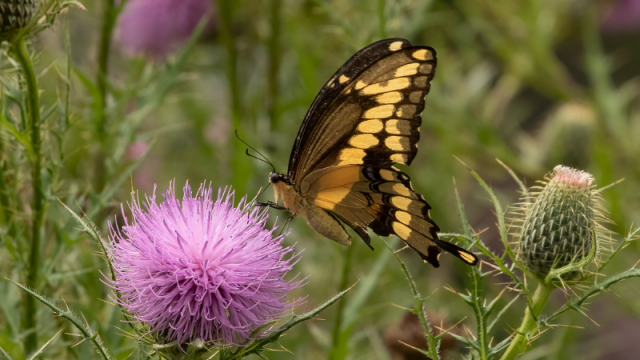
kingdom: Animalia
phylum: Arthropoda
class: Insecta
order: Lepidoptera
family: Papilionidae
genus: Papilio
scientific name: Papilio cresphontes
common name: Eastern Giant Swallowtail
